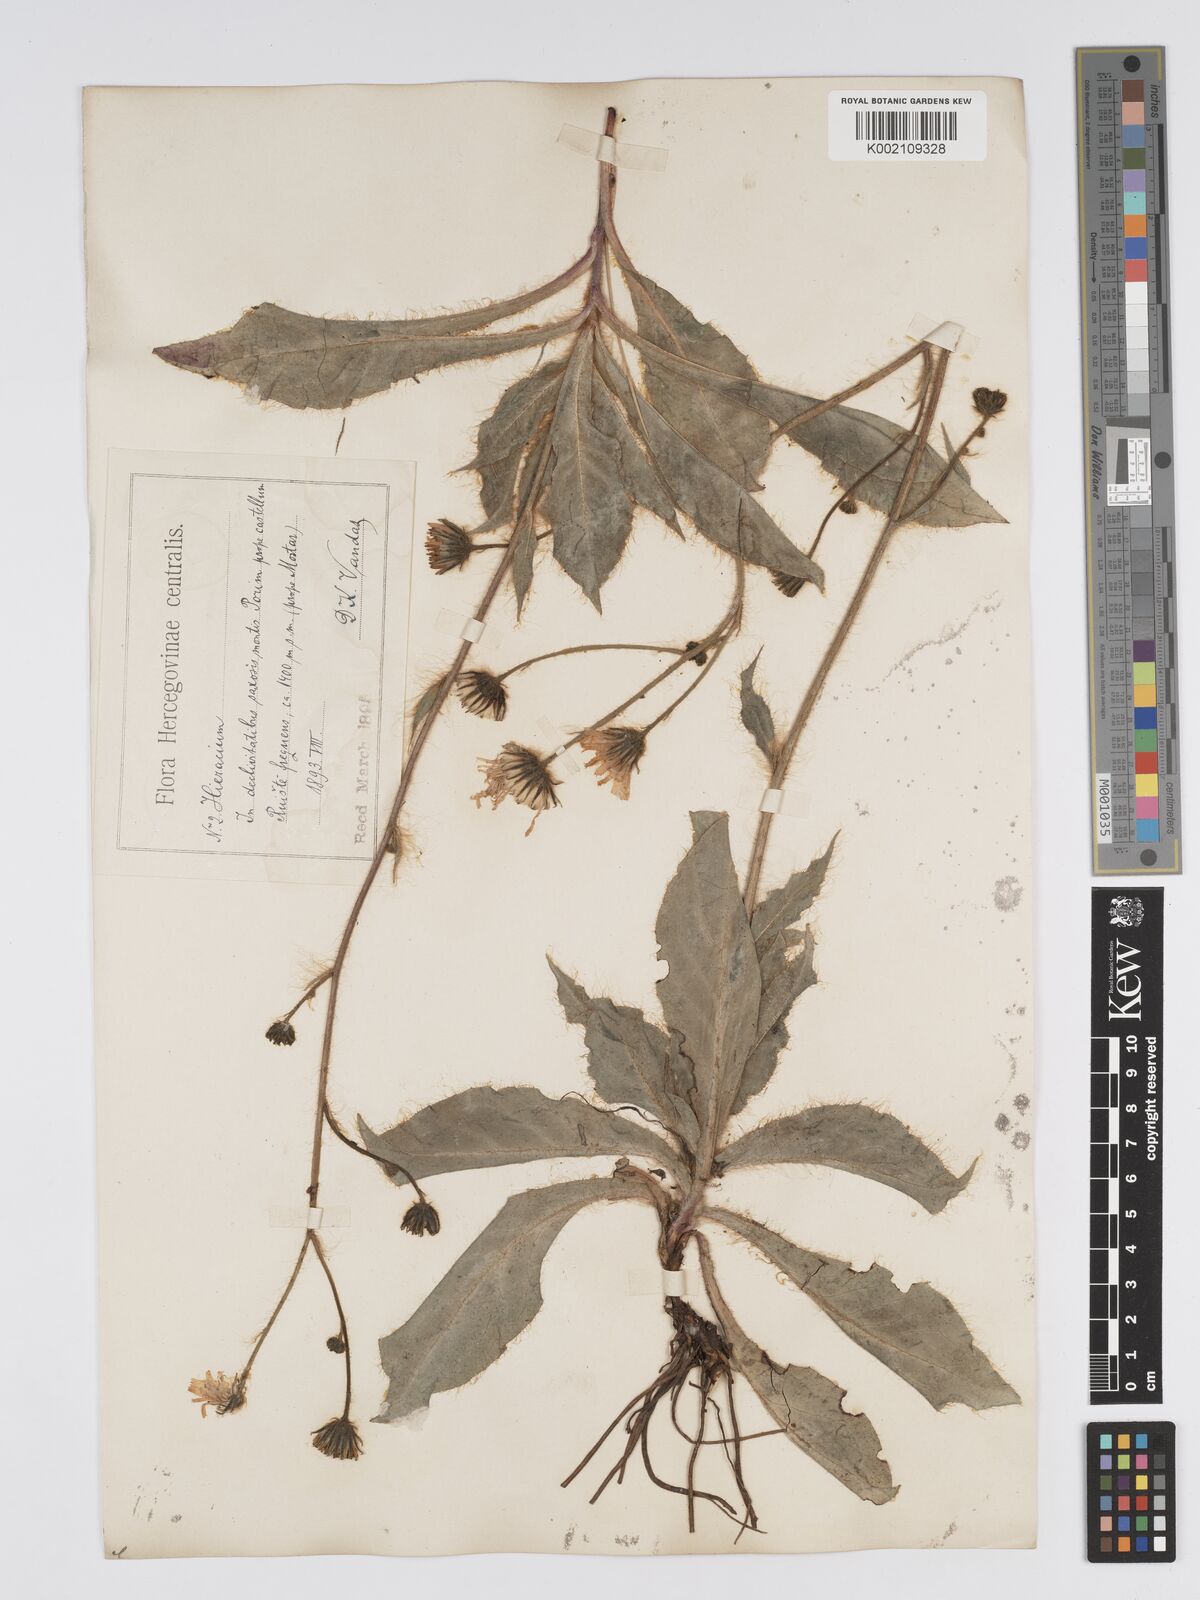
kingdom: Plantae
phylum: Tracheophyta
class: Magnoliopsida
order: Asterales
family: Asteraceae
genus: Hieracium
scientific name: Hieracium heterogynum
